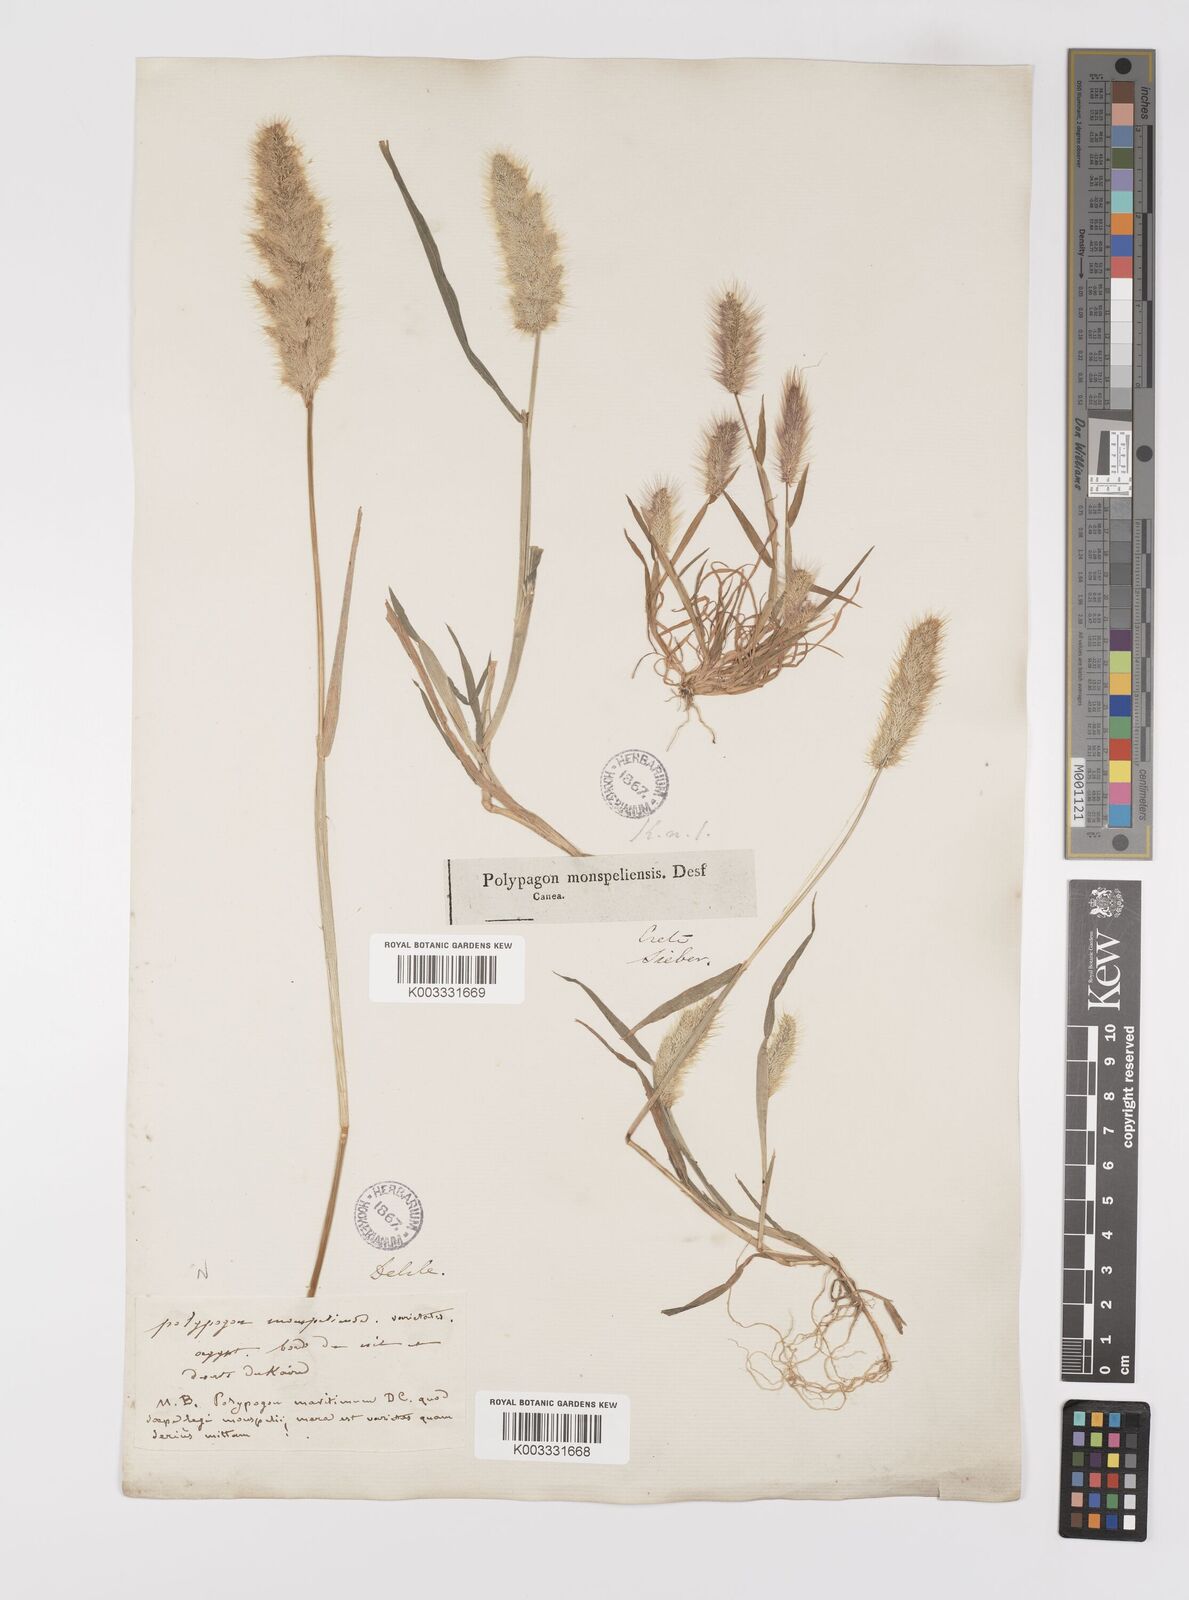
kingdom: Plantae
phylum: Tracheophyta
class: Liliopsida
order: Poales
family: Poaceae
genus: Polypogon
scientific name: Polypogon monspeliensis
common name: Annual rabbitsfoot grass
